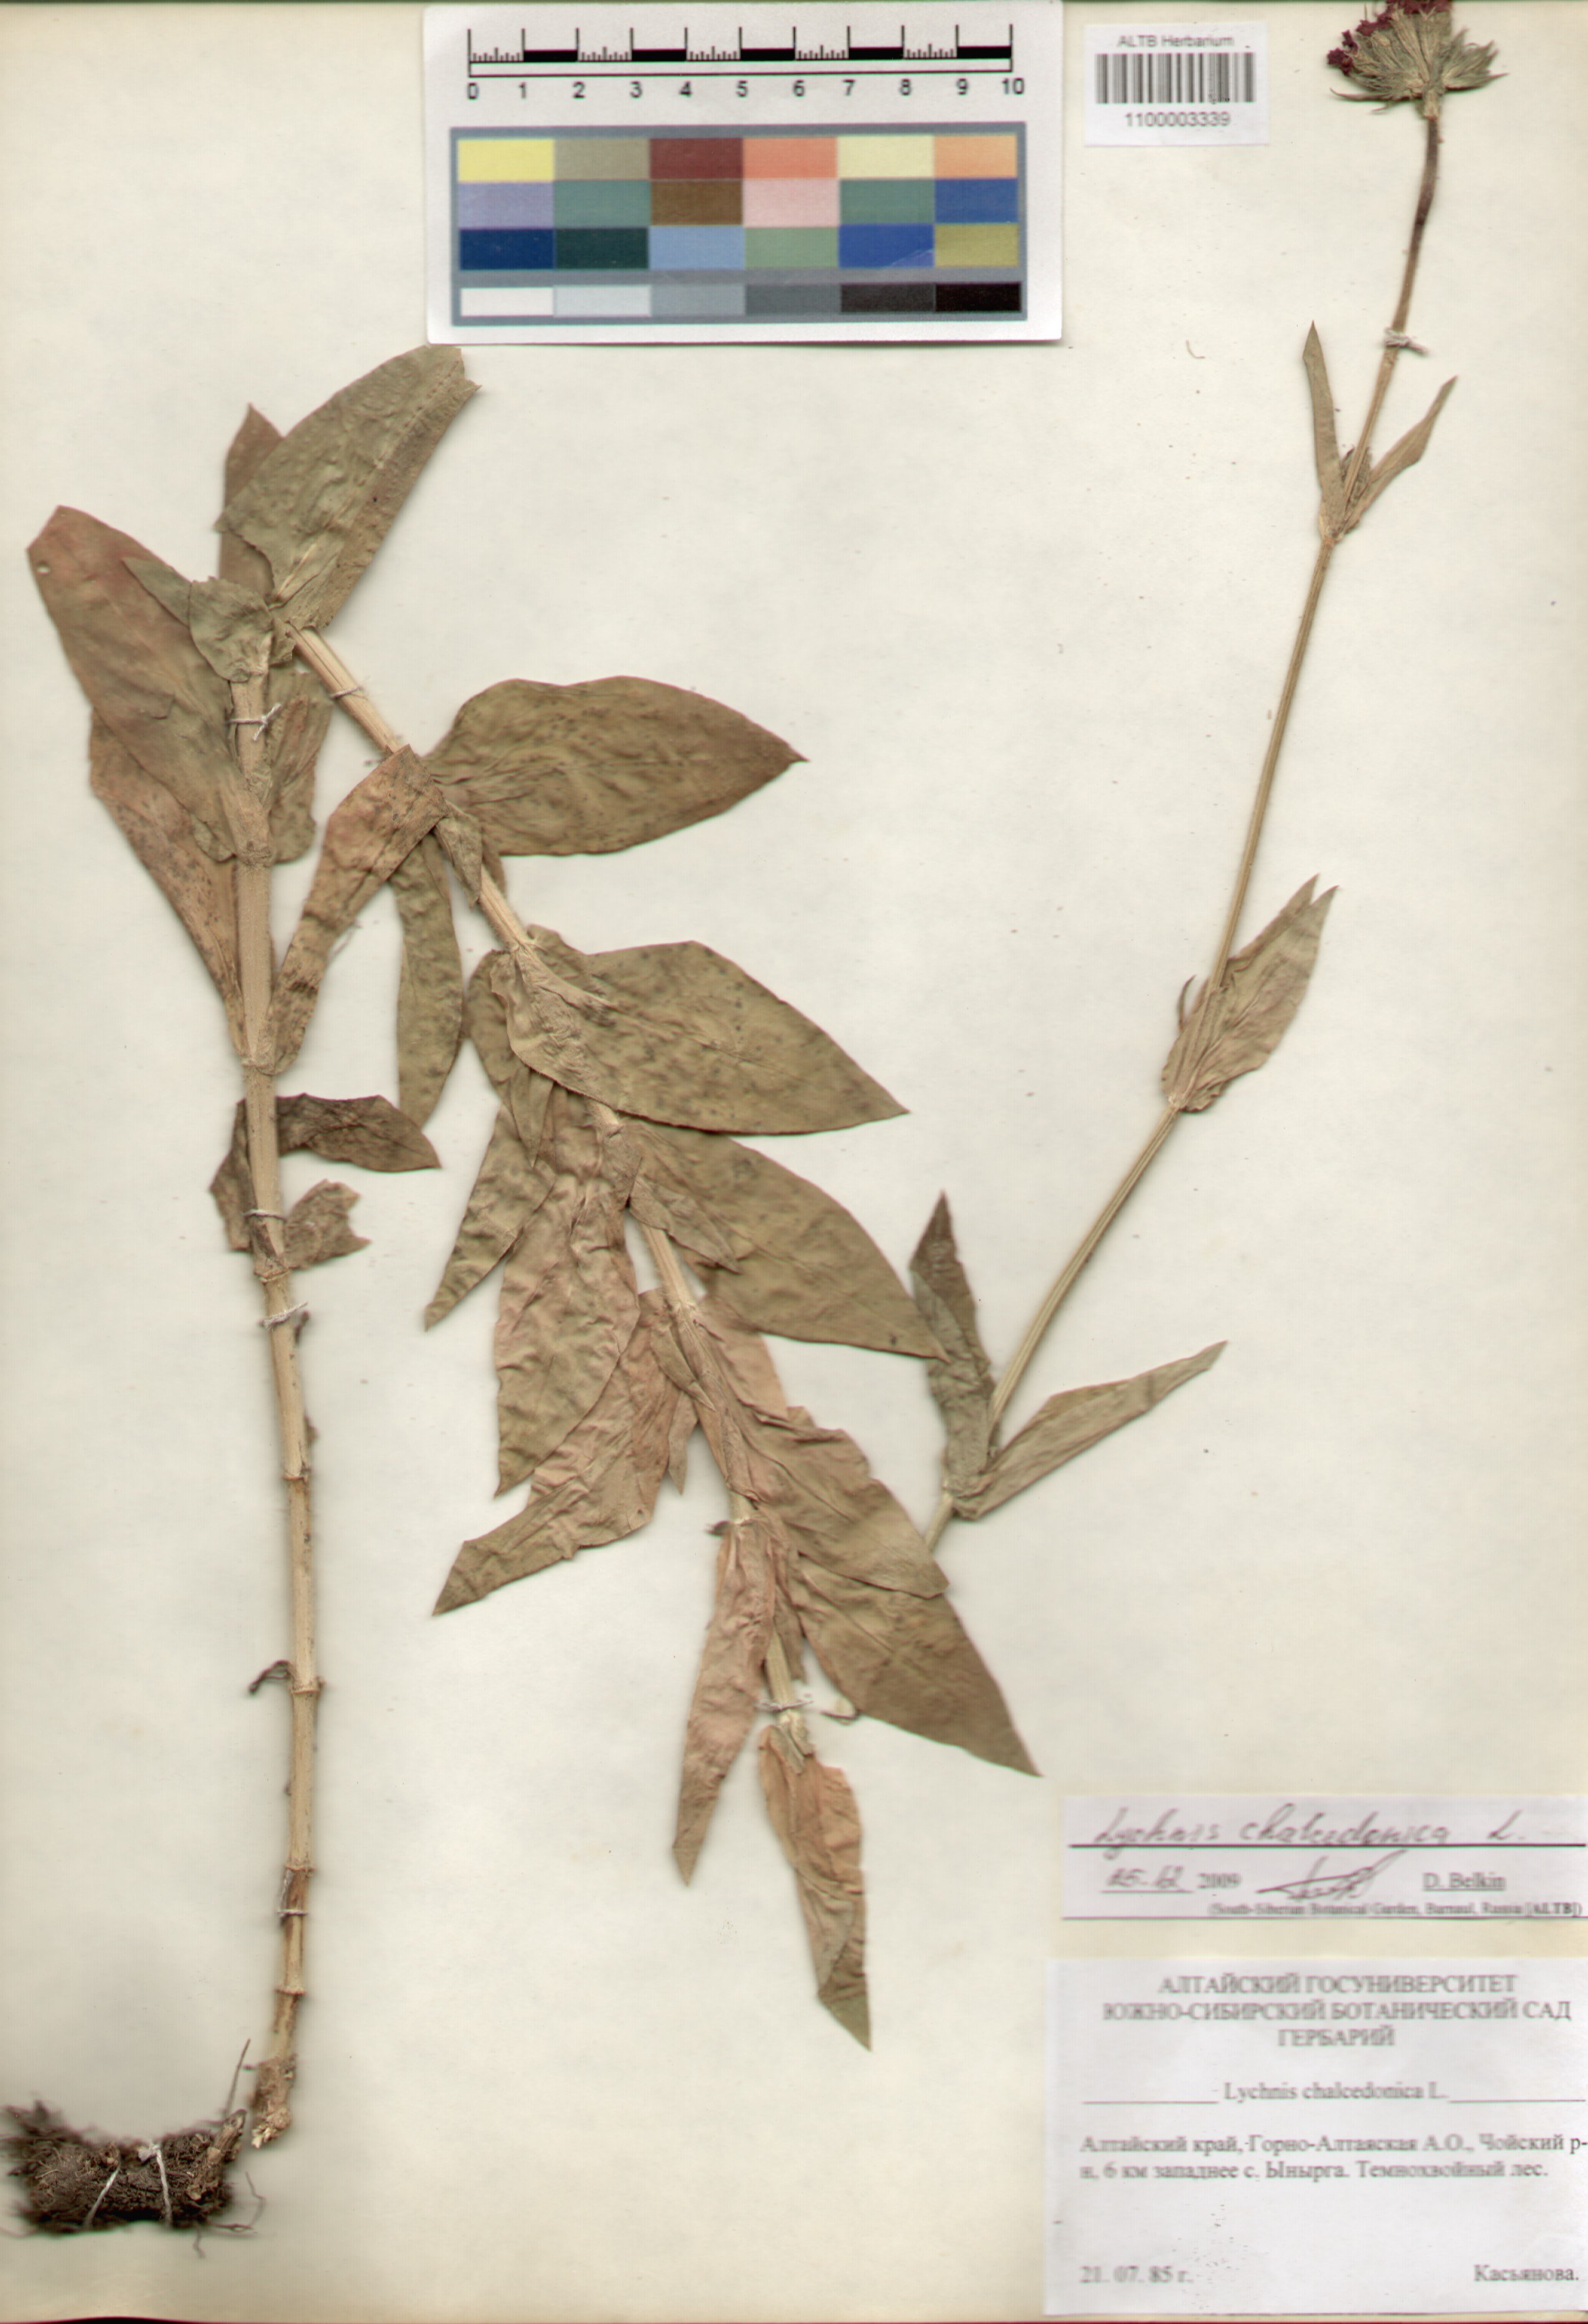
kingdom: Plantae
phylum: Tracheophyta
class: Magnoliopsida
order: Caryophyllales
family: Caryophyllaceae
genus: Silene
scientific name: Silene chalcedonica
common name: Maltese-cross
